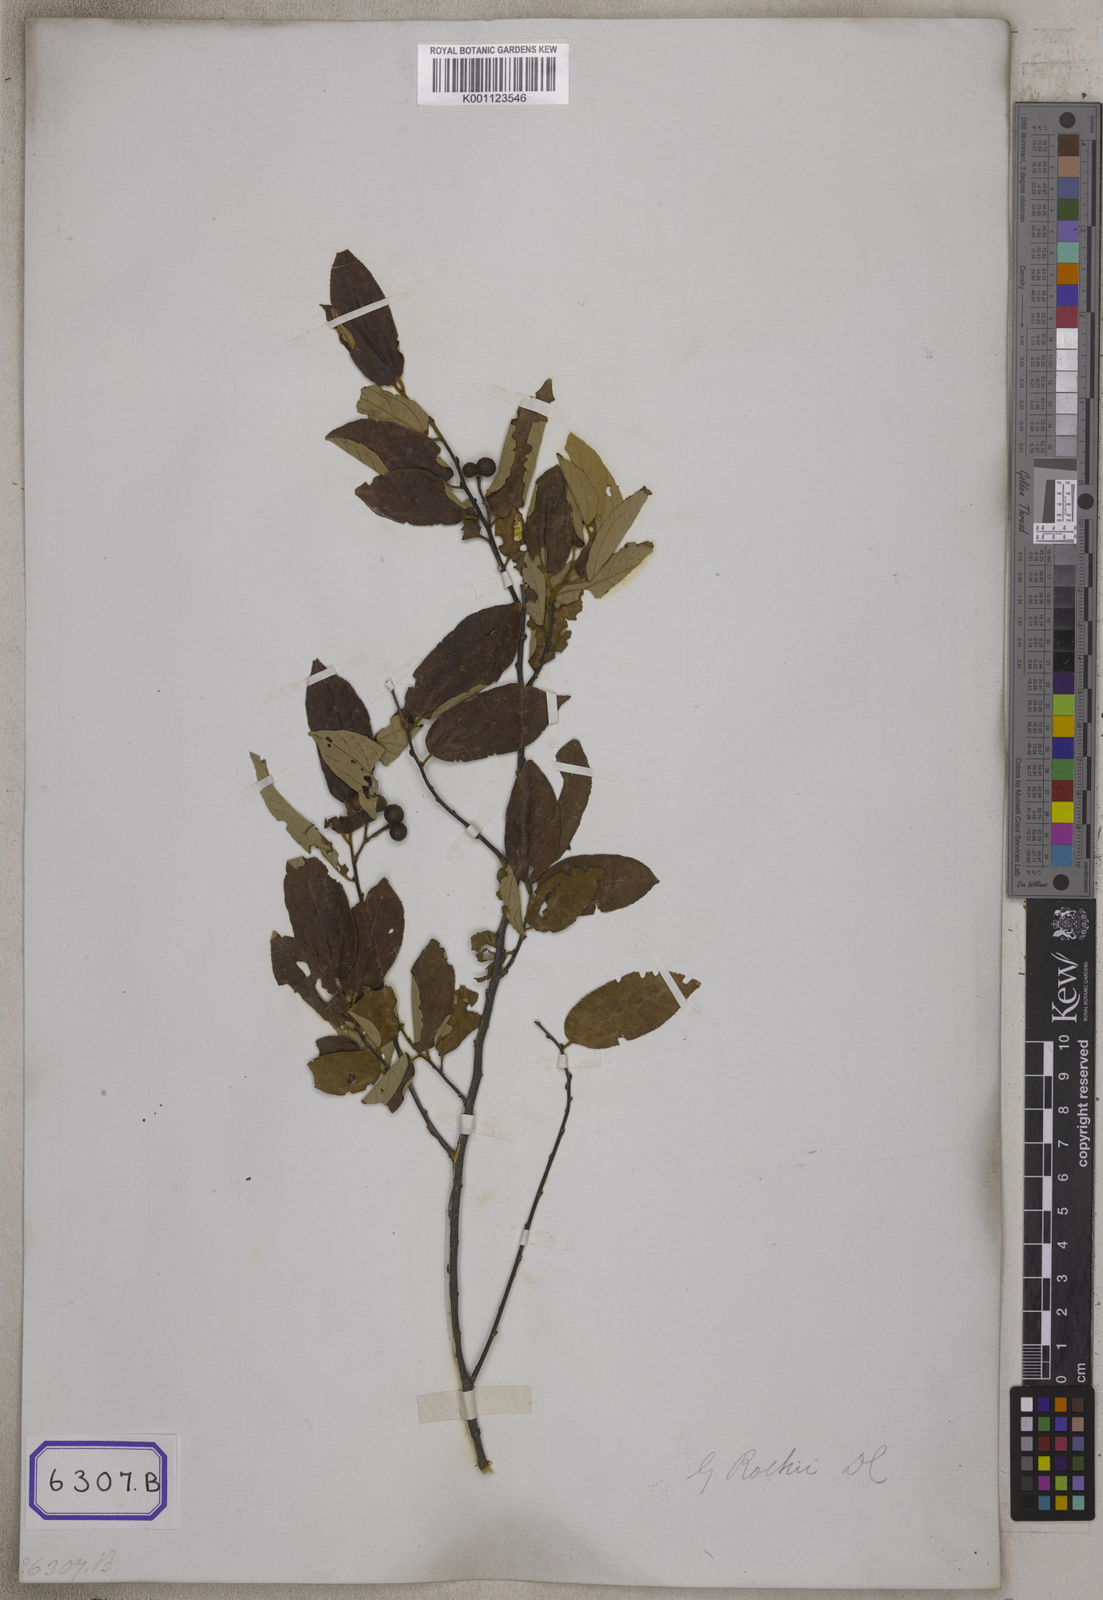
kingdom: Plantae
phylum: Tracheophyta
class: Magnoliopsida
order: Malvales
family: Malvaceae
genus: Grewia
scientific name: Grewia excelsa
